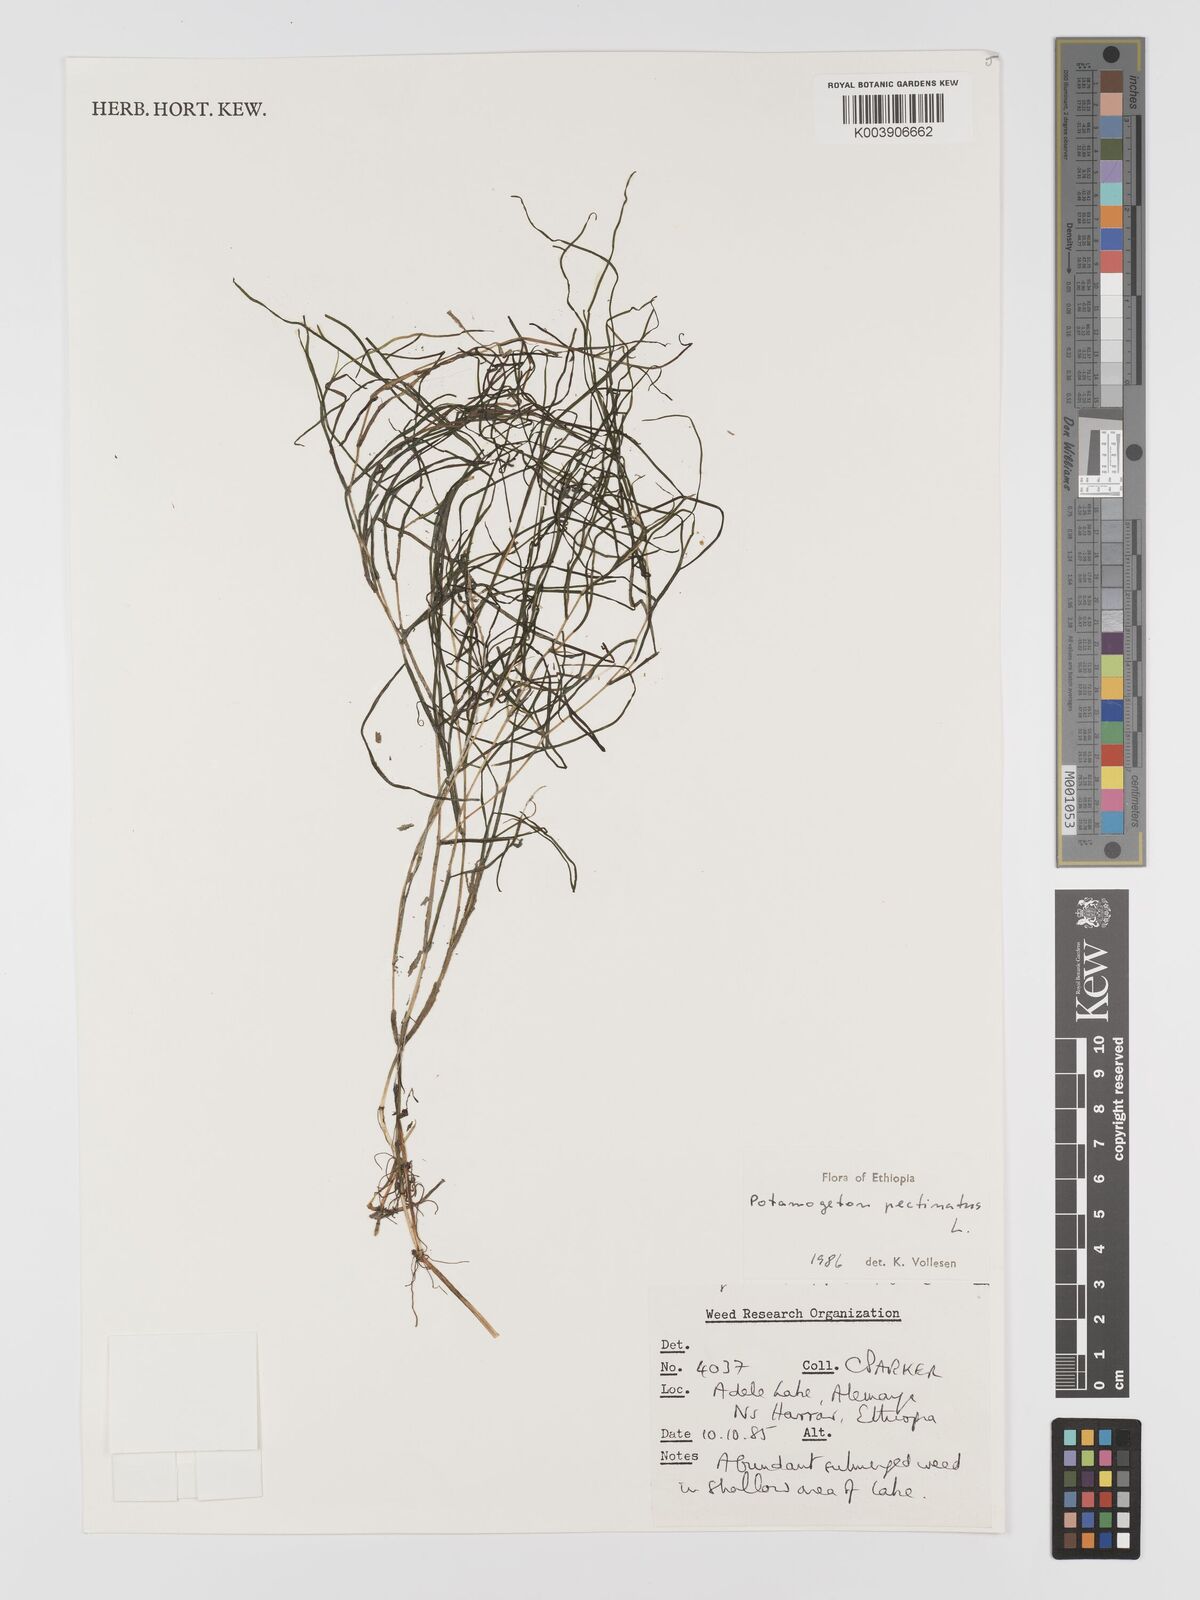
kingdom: Plantae
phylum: Tracheophyta
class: Liliopsida
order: Alismatales
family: Potamogetonaceae
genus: Stuckenia
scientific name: Stuckenia pectinata
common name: Sago pondweed
